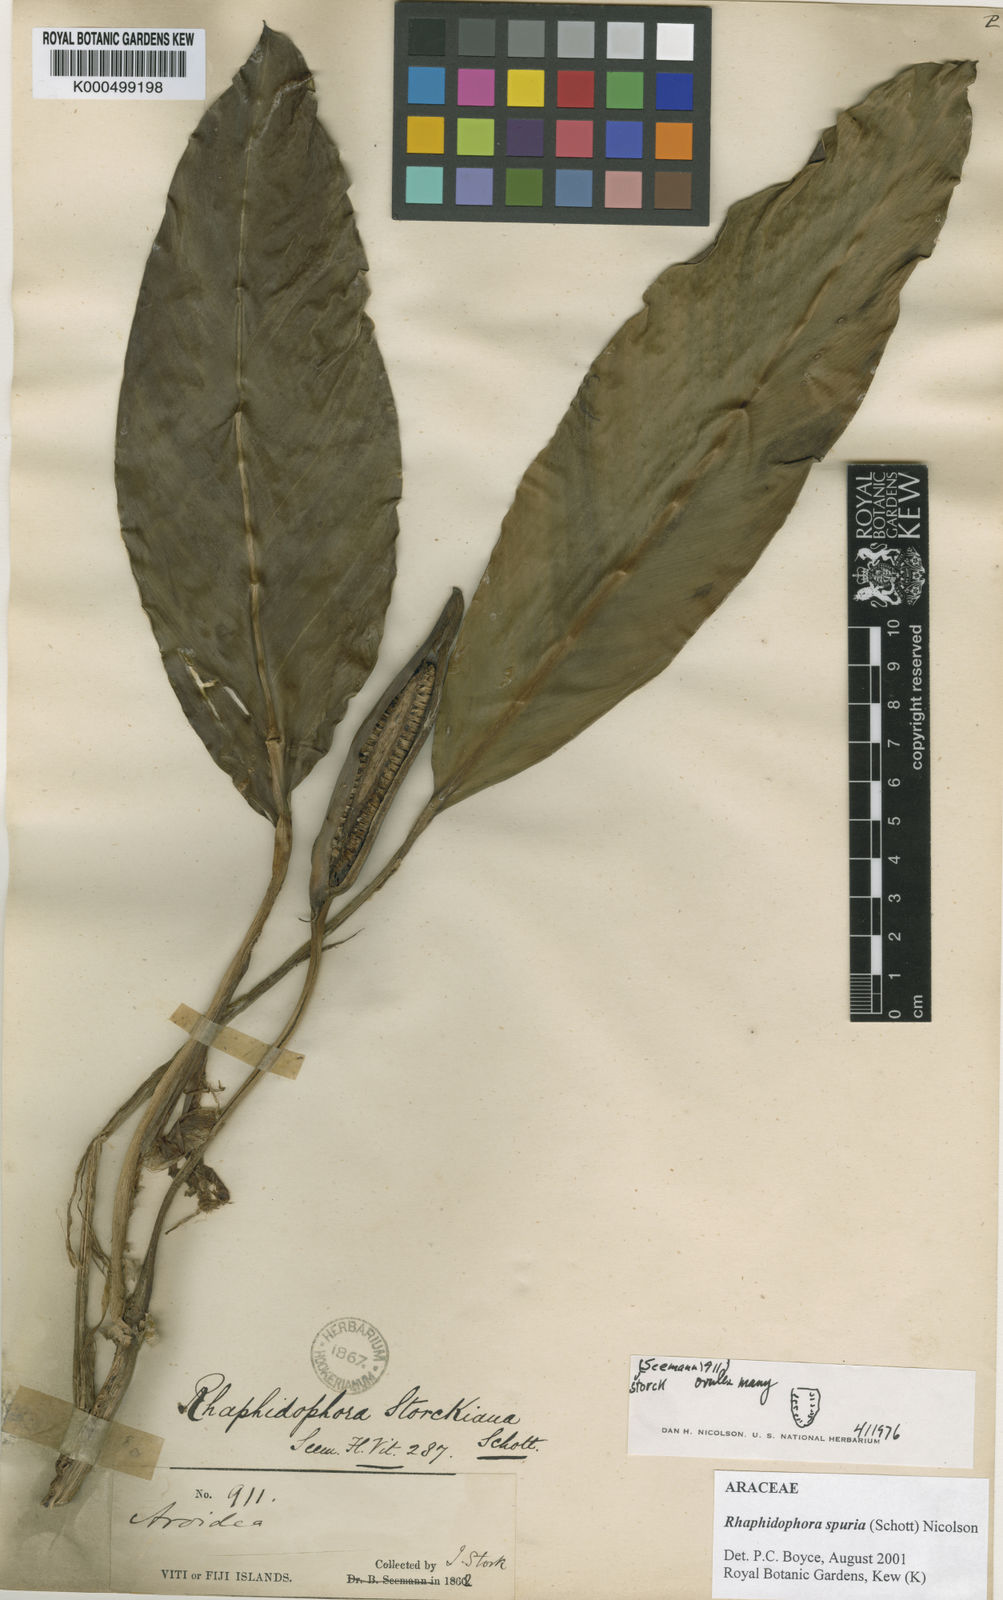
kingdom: Plantae
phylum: Tracheophyta
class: Liliopsida
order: Alismatales
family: Araceae
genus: Rhaphidophora
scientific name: Rhaphidophora spuria
